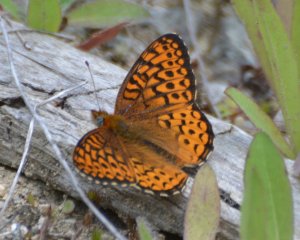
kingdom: Animalia
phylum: Arthropoda
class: Insecta
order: Lepidoptera
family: Nymphalidae
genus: Speyeria
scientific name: Speyeria atlantis
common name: Atlantis Fritillary
